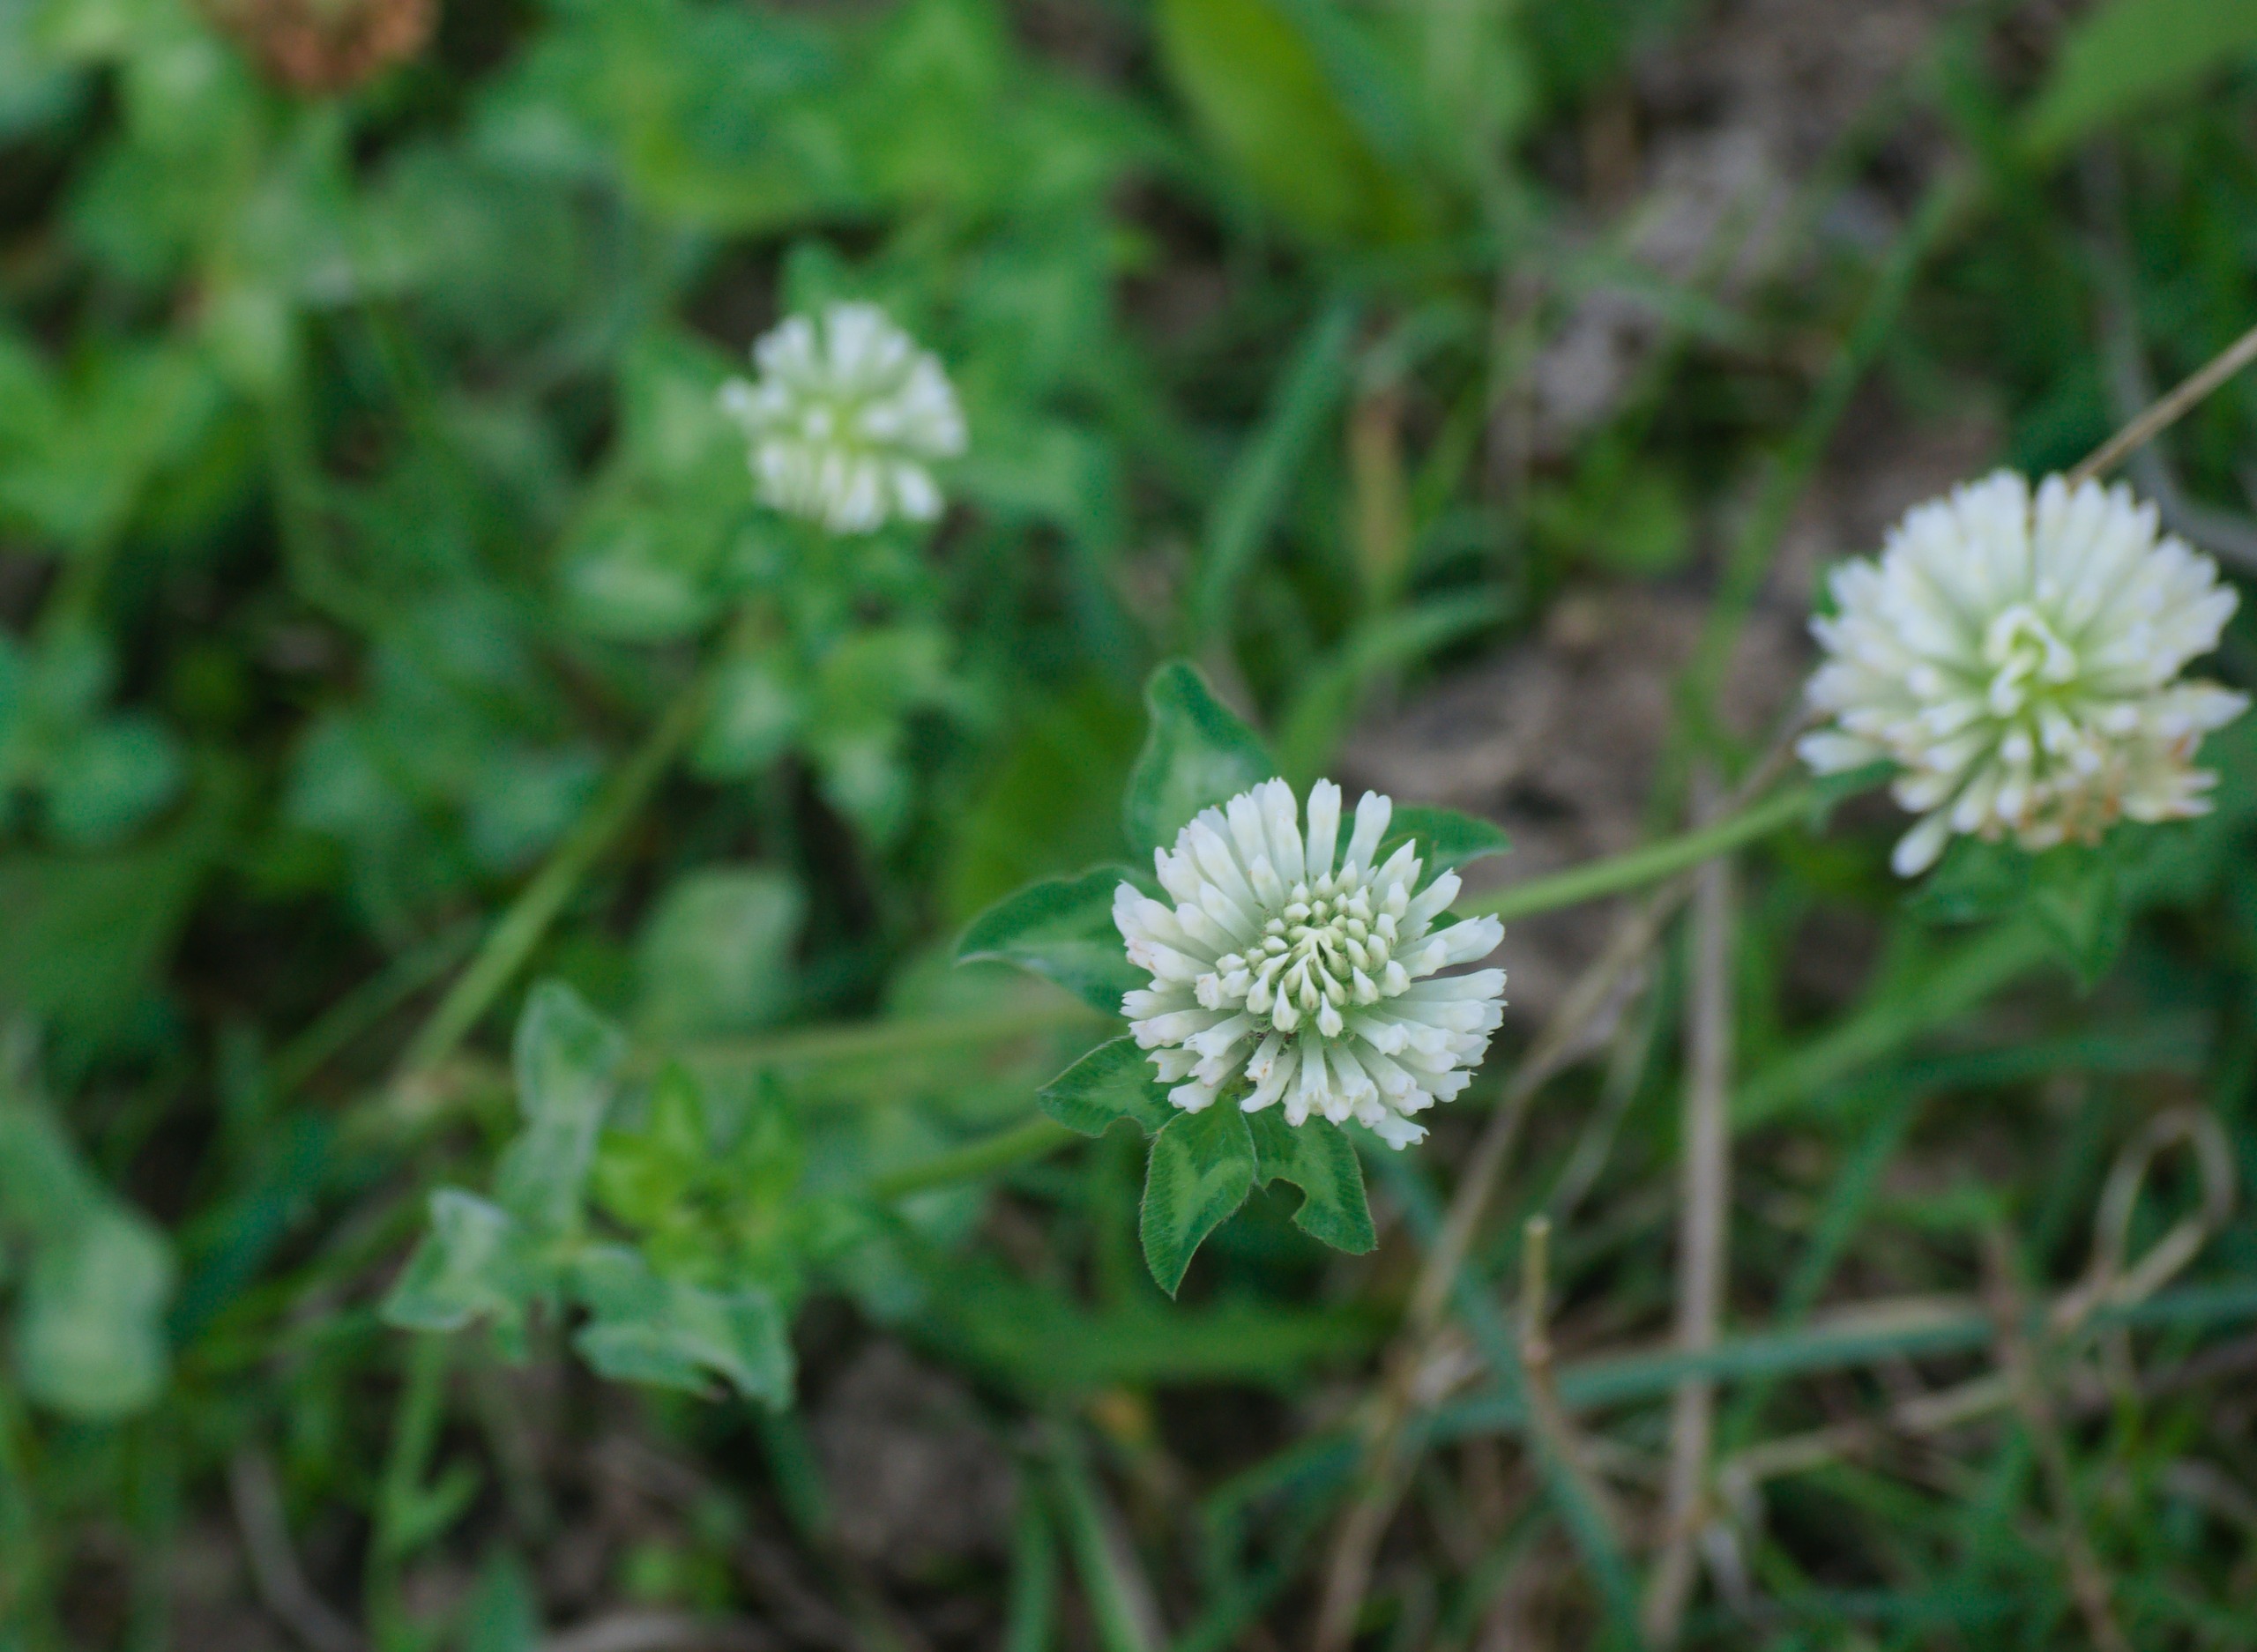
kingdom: Plantae
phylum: Tracheophyta
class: Magnoliopsida
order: Fabales
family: Fabaceae
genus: Trifolium
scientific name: Trifolium pratense
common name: Rød-kløver
